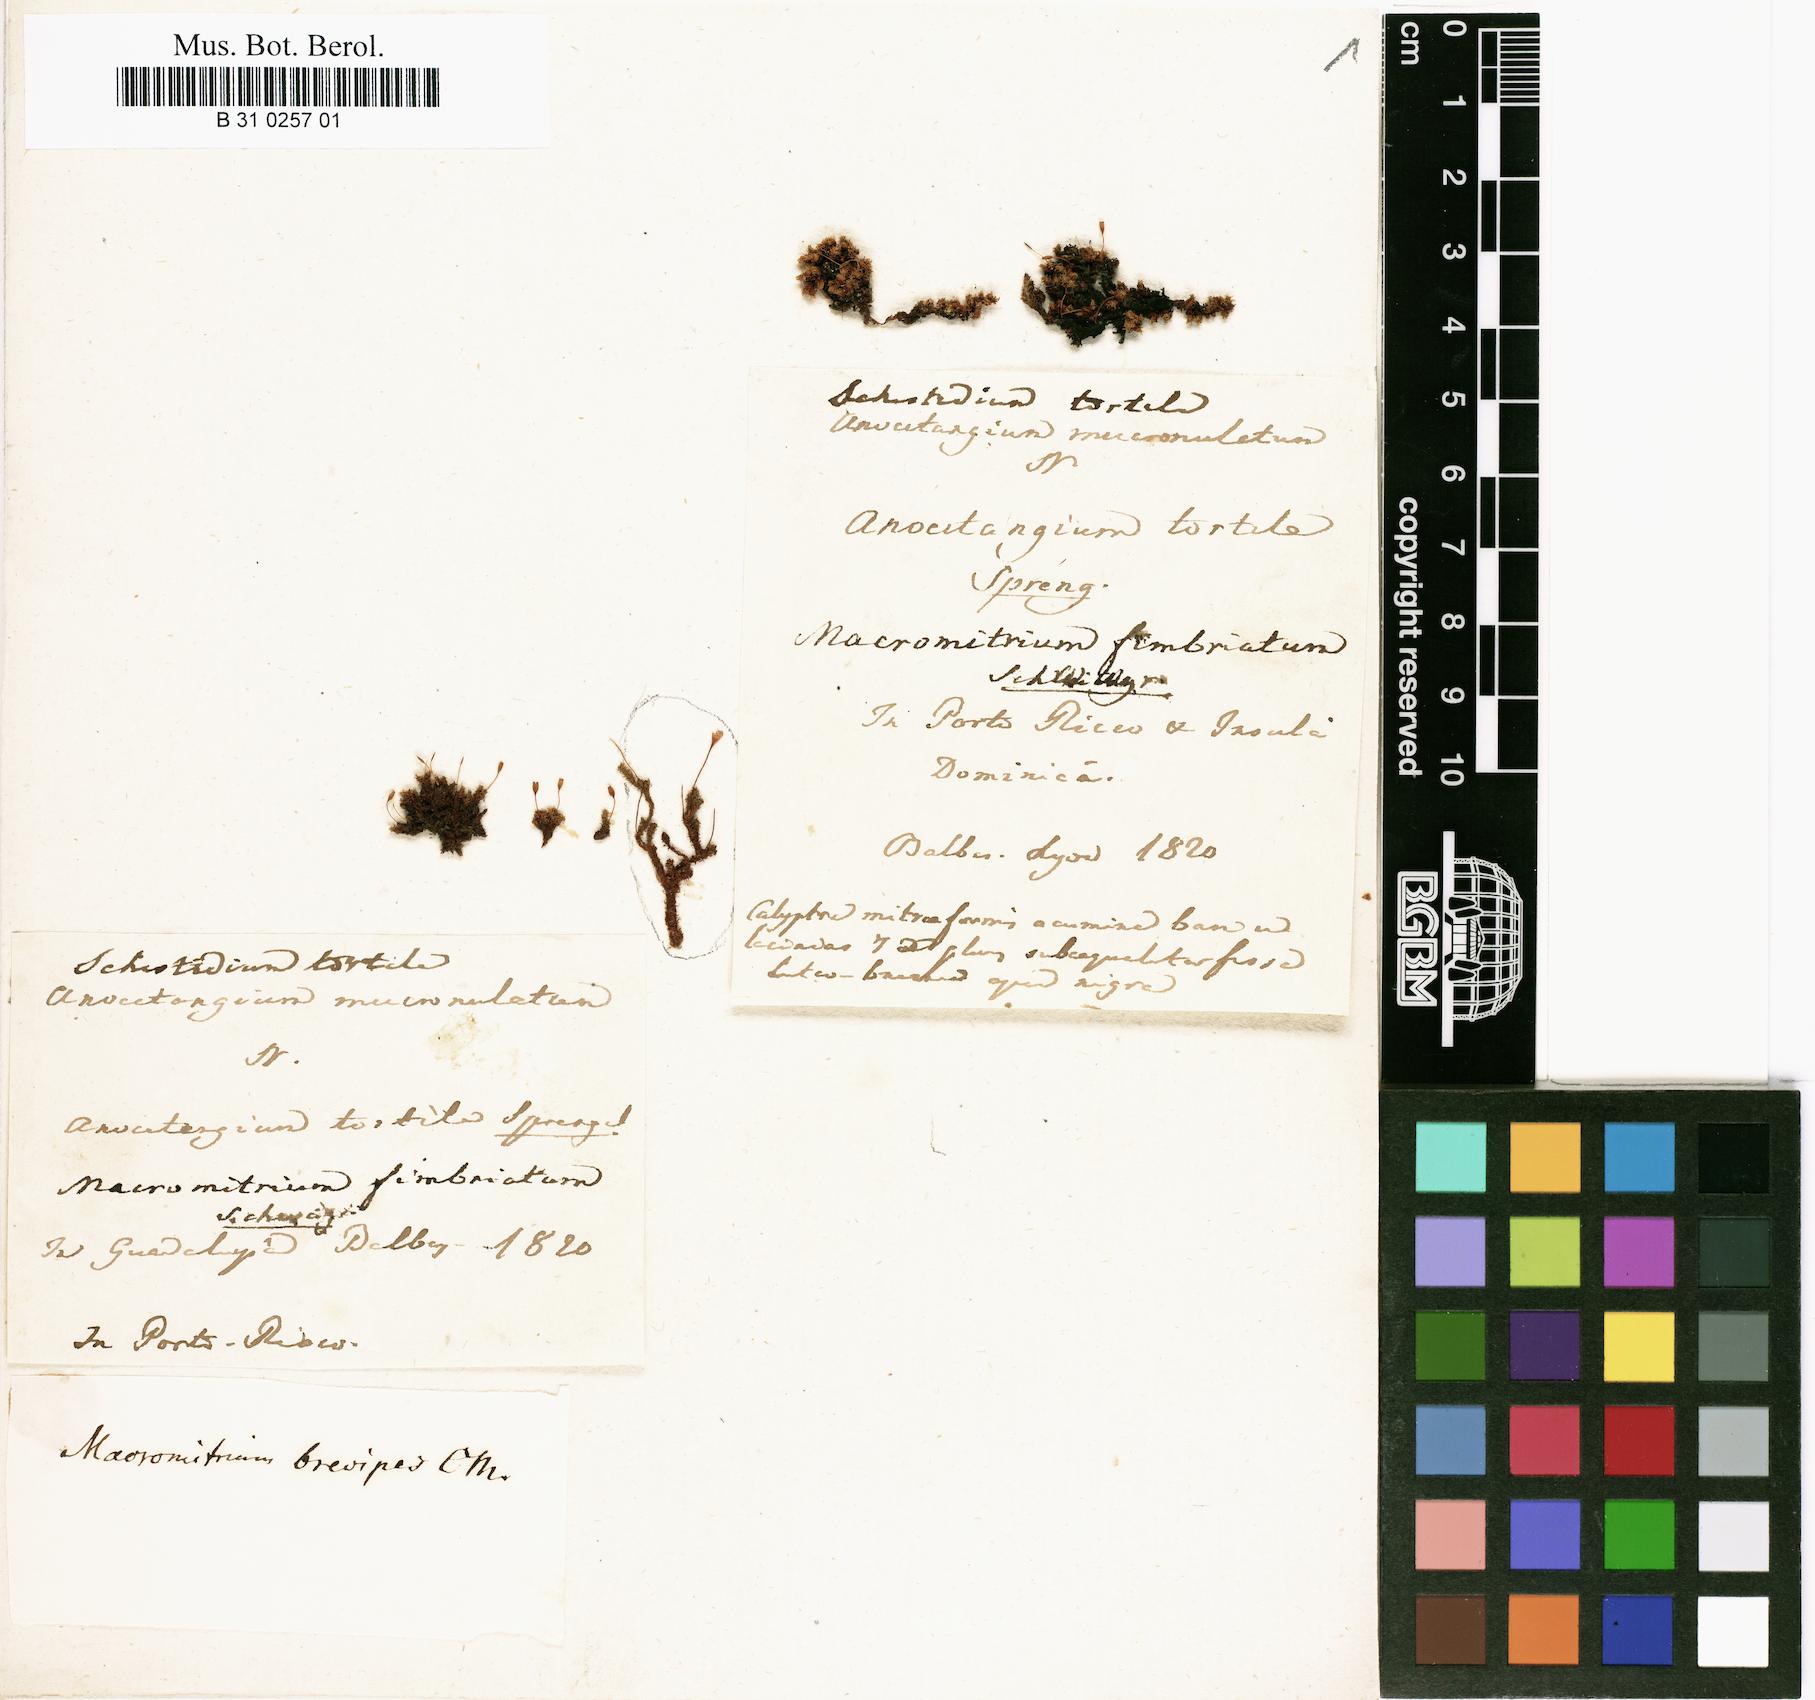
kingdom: Plantae
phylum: Bryophyta
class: Bryopsida
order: Orthotrichales
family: Orthotrichaceae
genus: Macromitrium
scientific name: Macromitrium fimbriatum
